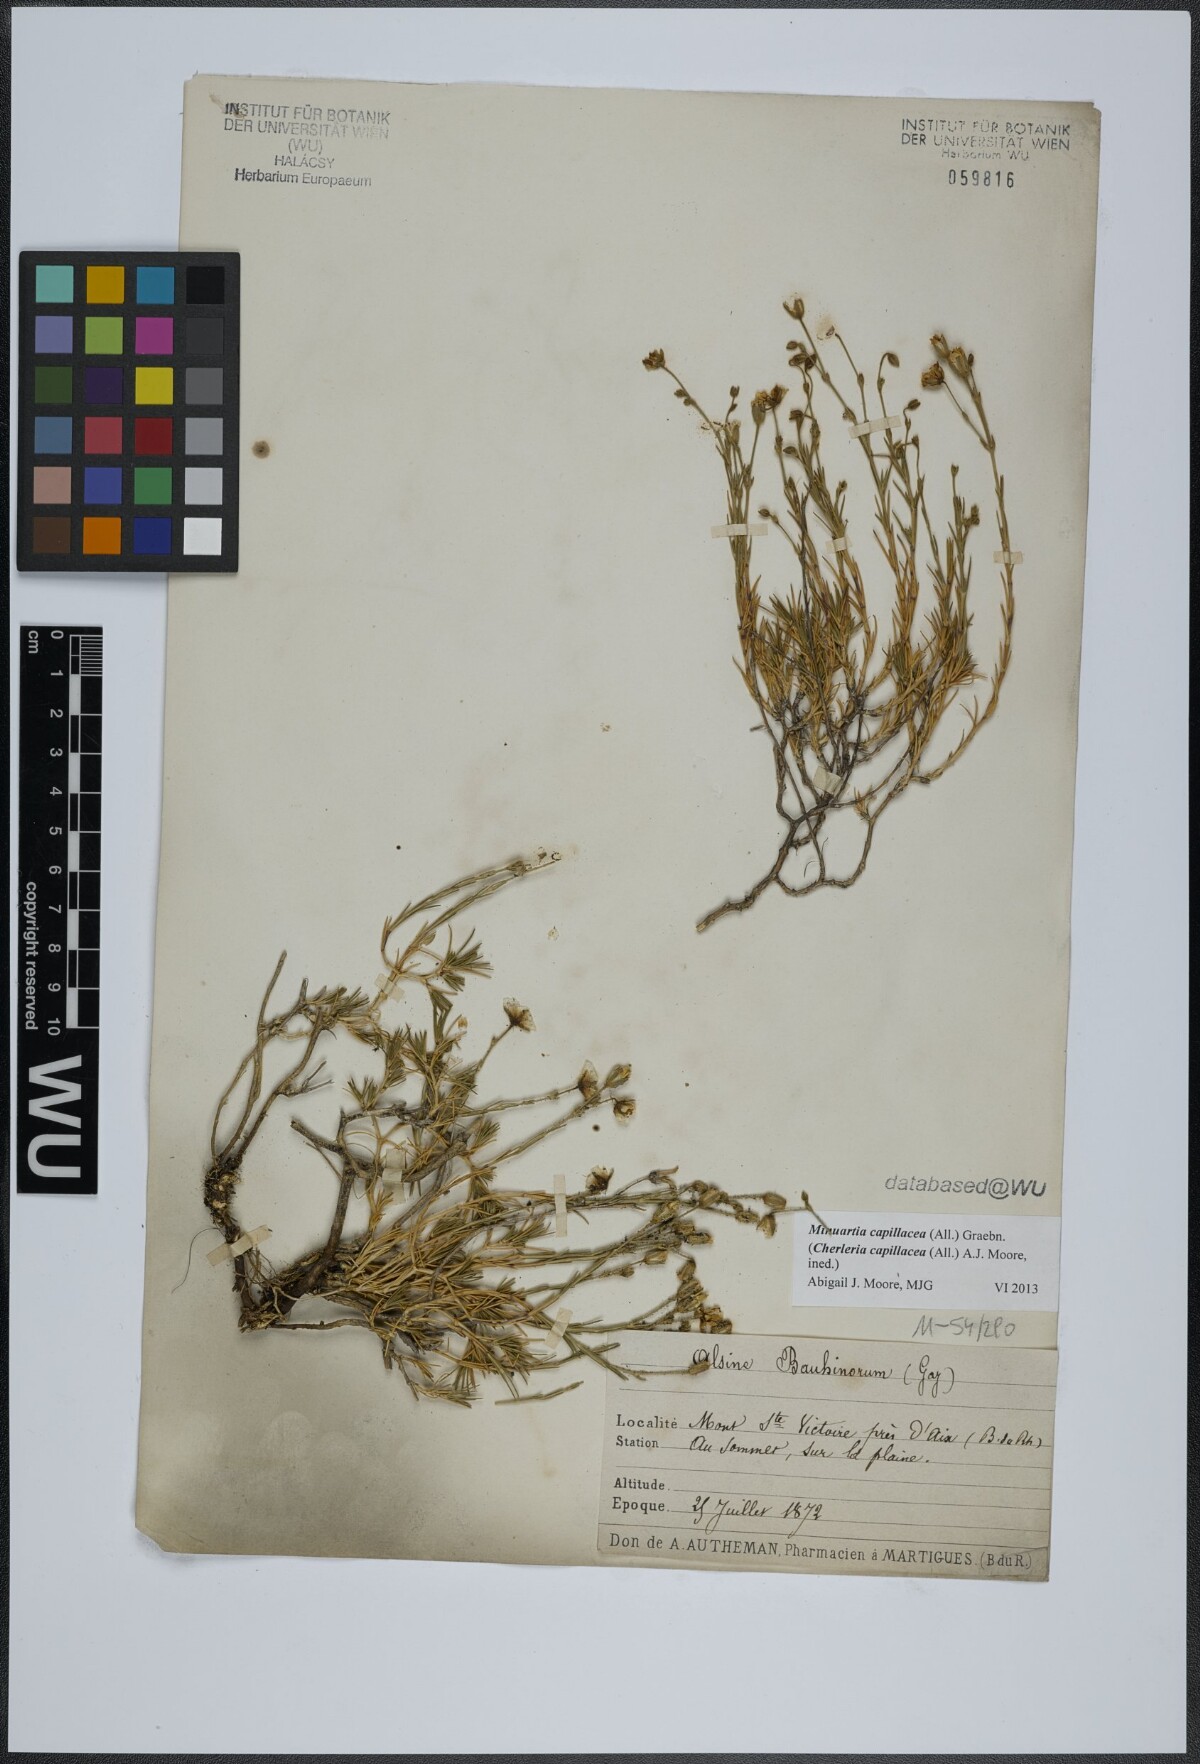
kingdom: Plantae
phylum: Tracheophyta
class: Magnoliopsida
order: Caryophyllales
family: Caryophyllaceae
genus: Cherleria
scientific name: Cherleria capillacea
